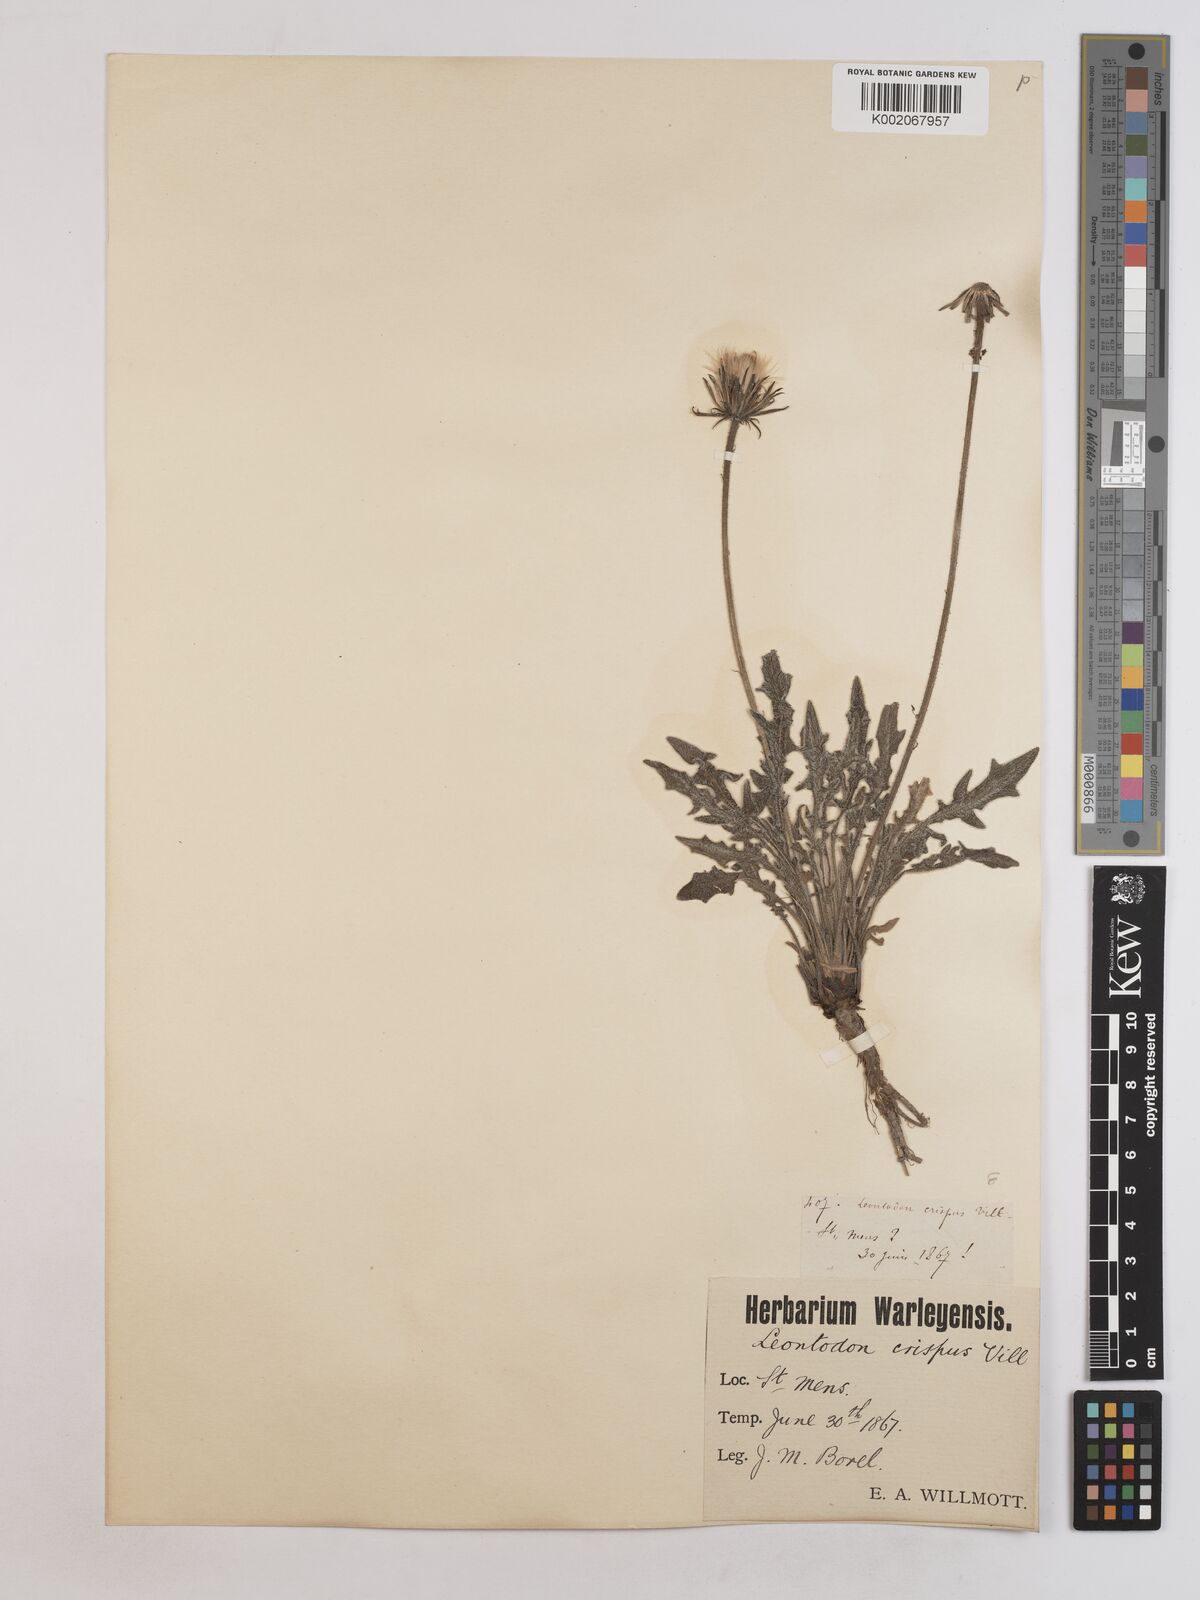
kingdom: Plantae
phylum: Tracheophyta
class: Magnoliopsida
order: Asterales
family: Asteraceae
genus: Leontodon
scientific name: Leontodon crispus
